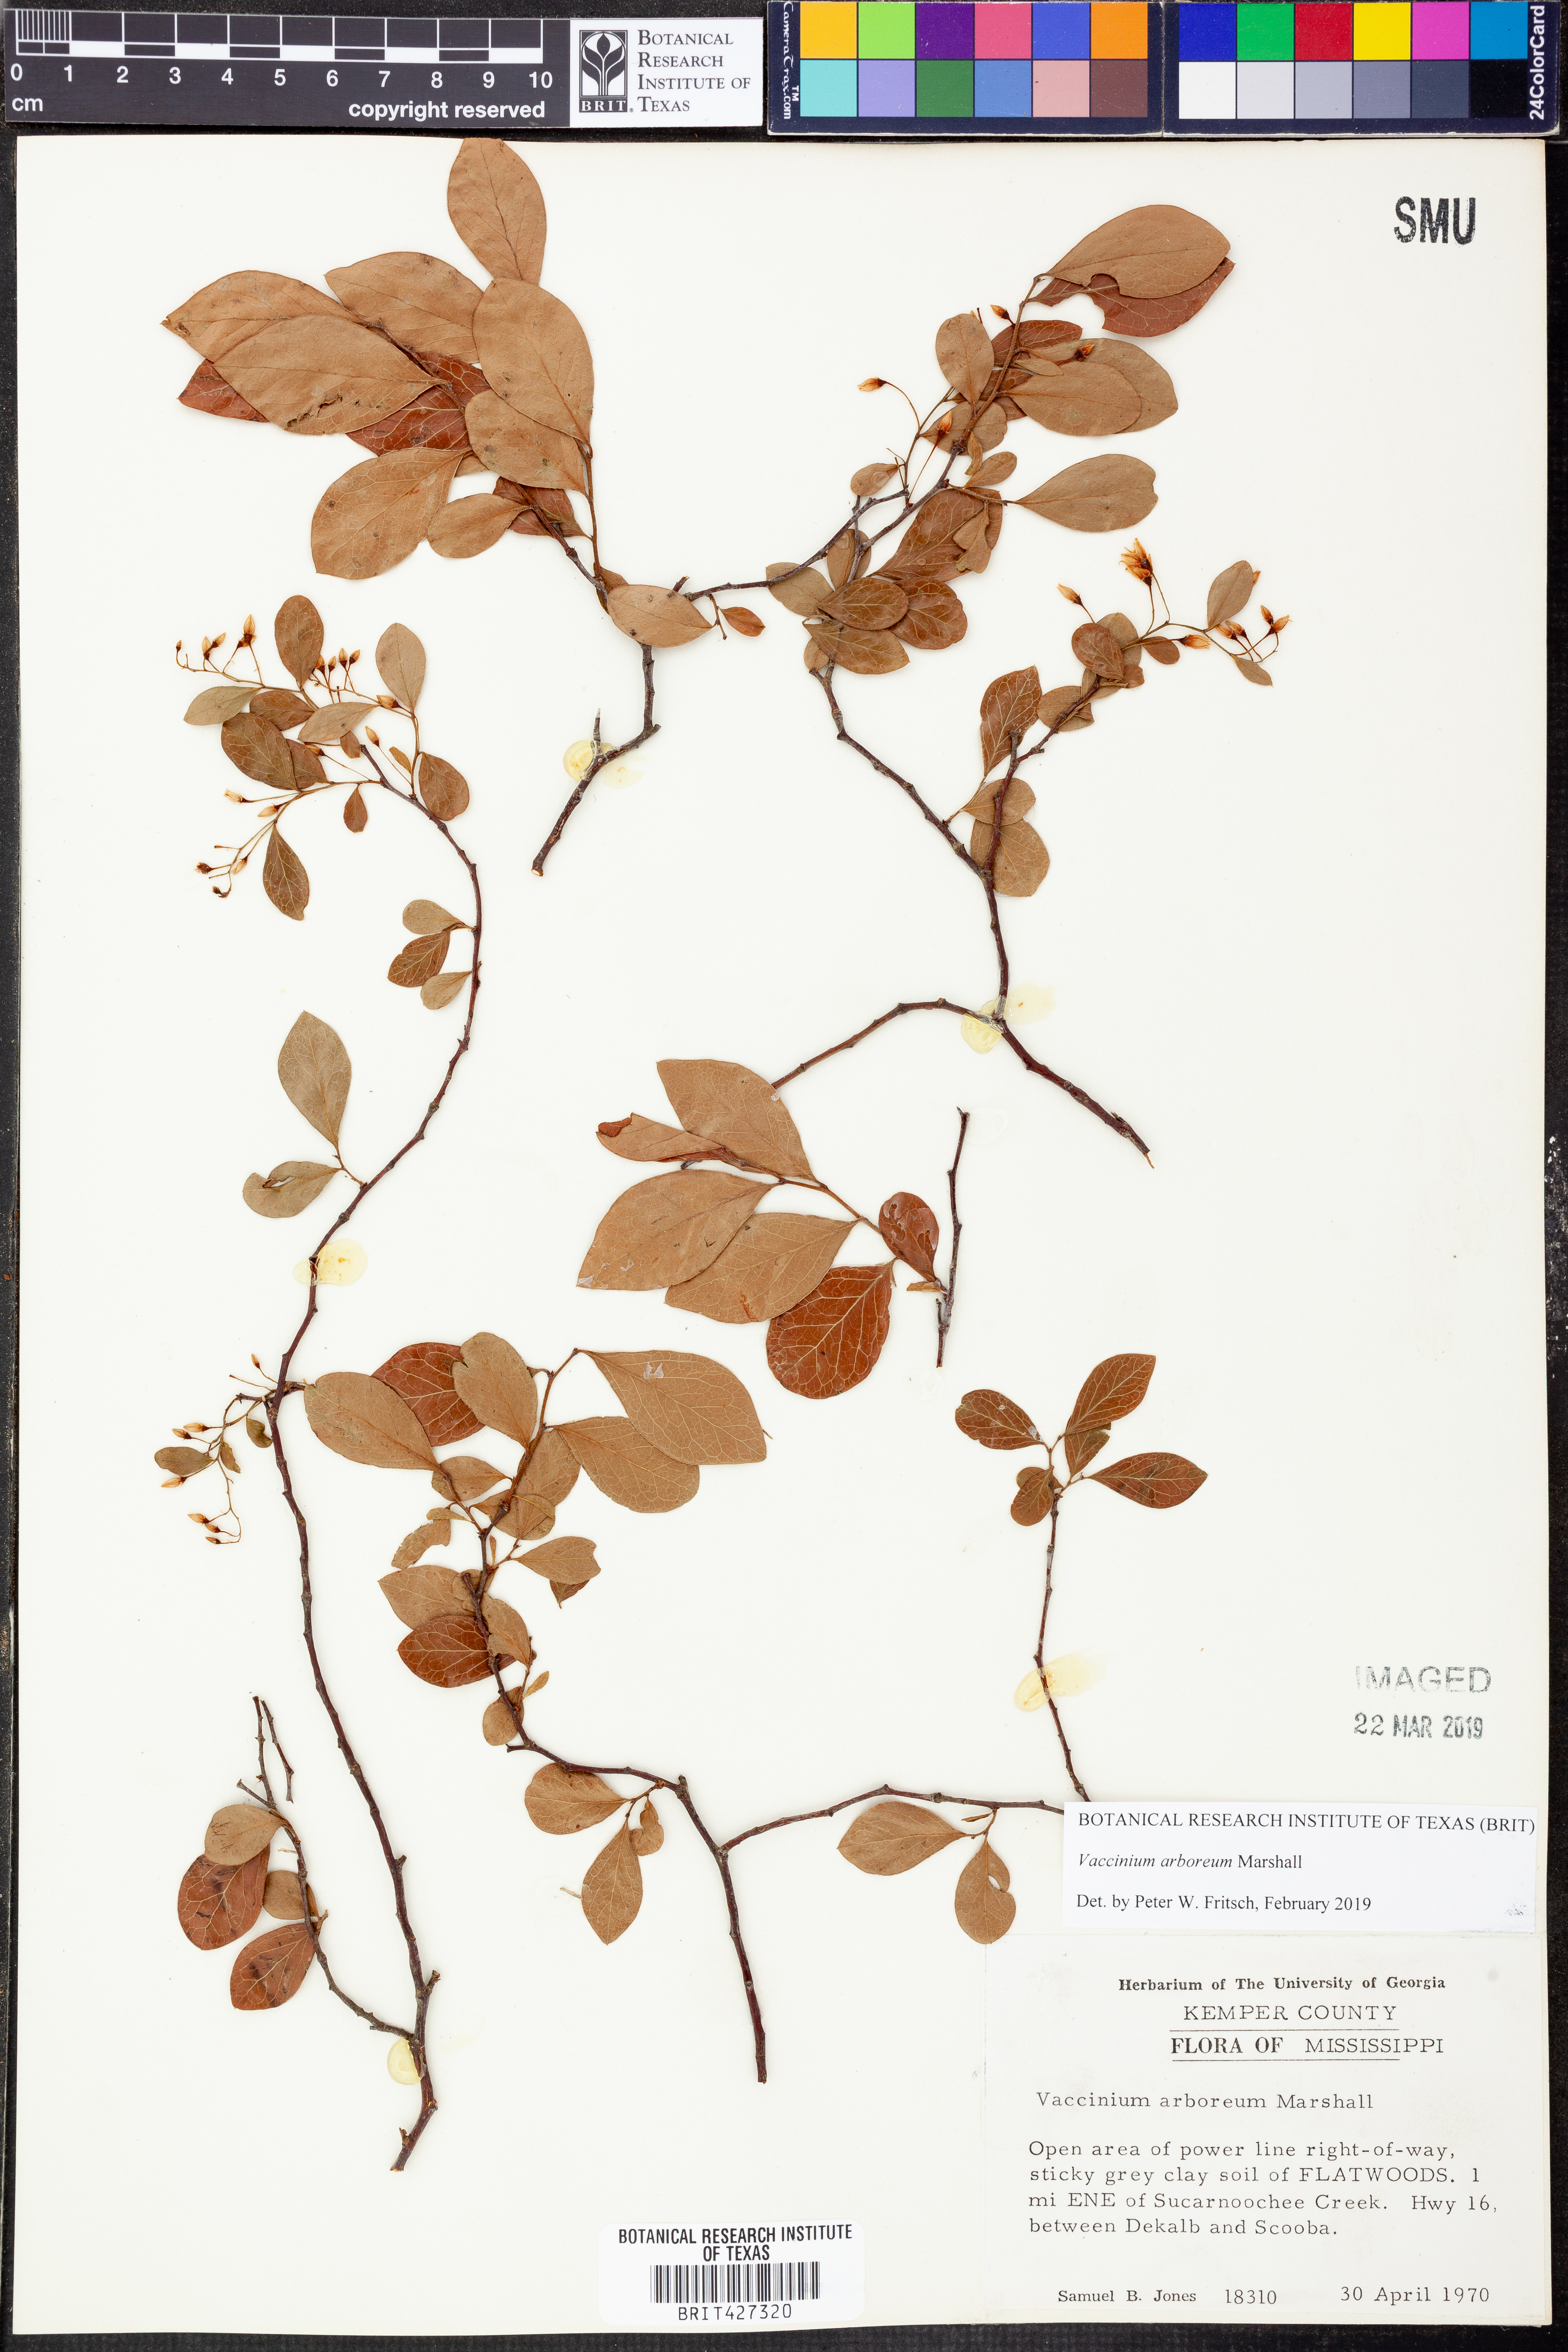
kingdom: Plantae
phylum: Tracheophyta
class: Magnoliopsida
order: Ericales
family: Ericaceae
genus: Vaccinium
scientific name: Vaccinium arboreum
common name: Farkleberry
